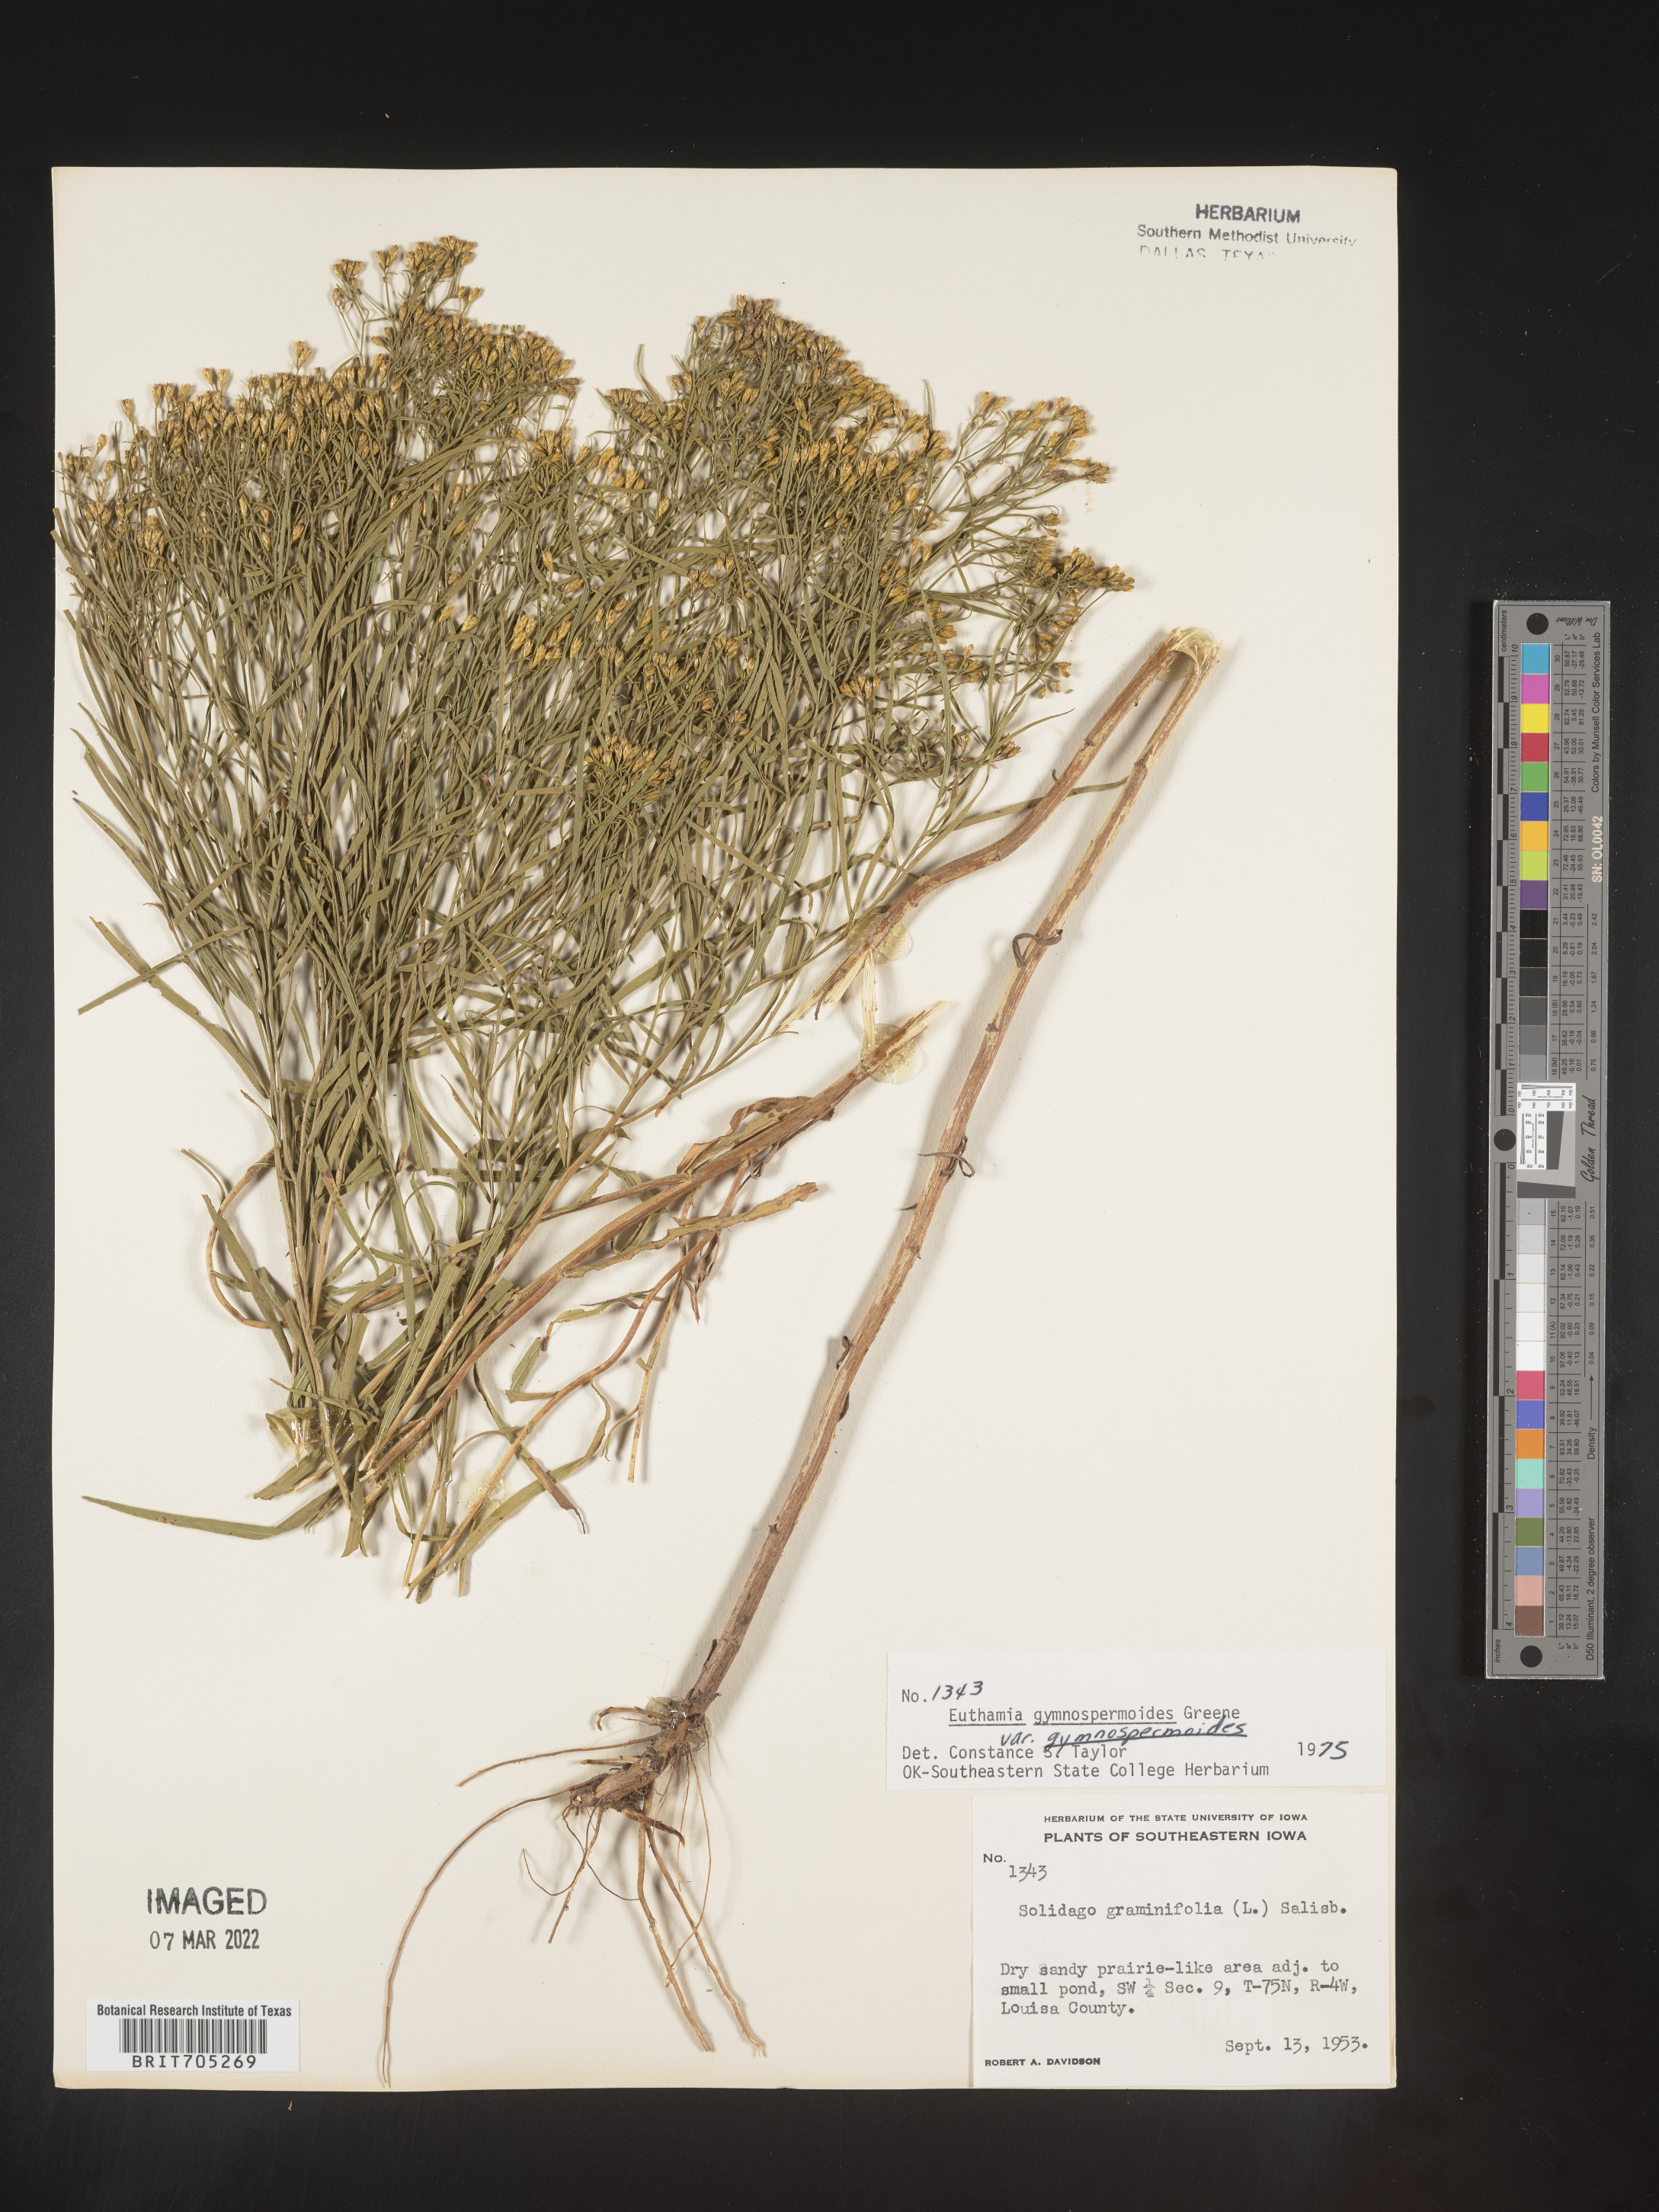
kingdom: Plantae
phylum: Tracheophyta
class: Magnoliopsida
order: Asterales
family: Asteraceae
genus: Euthamia
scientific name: Euthamia gymnospermoides
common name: Great plains goldentop
